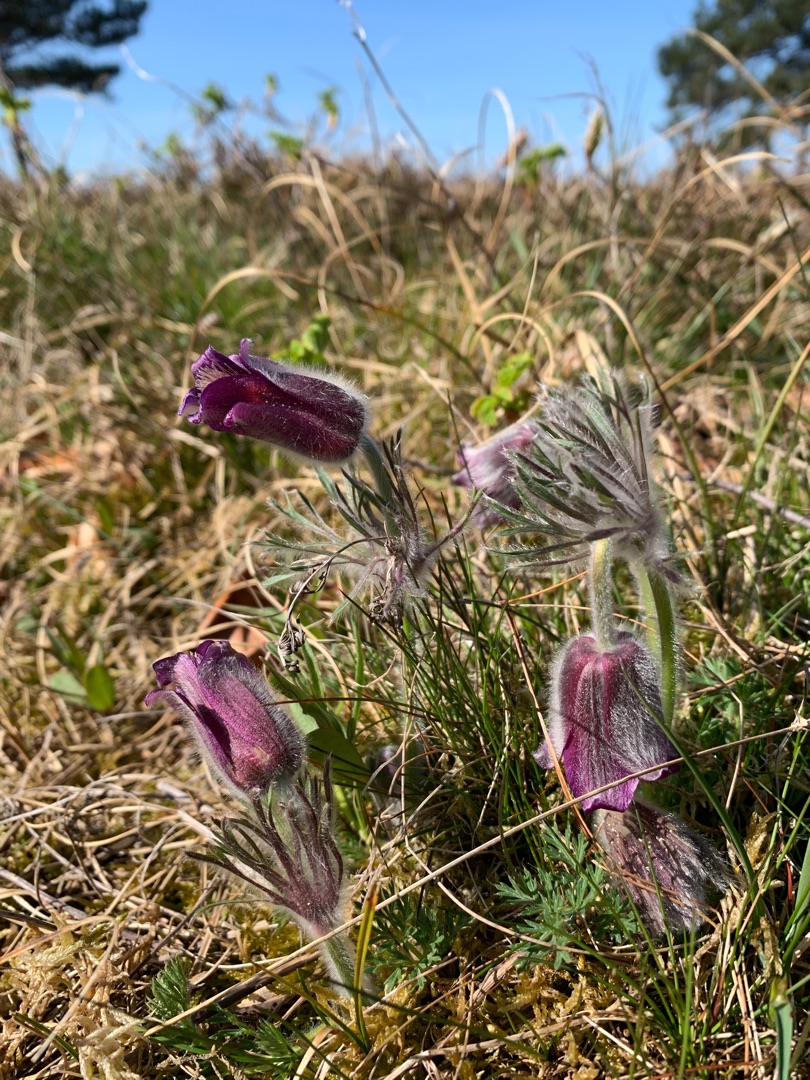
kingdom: Plantae
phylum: Tracheophyta
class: Magnoliopsida
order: Ranunculales
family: Ranunculaceae
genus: Pulsatilla
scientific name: Pulsatilla pratensis
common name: Nikkende kobjælde
